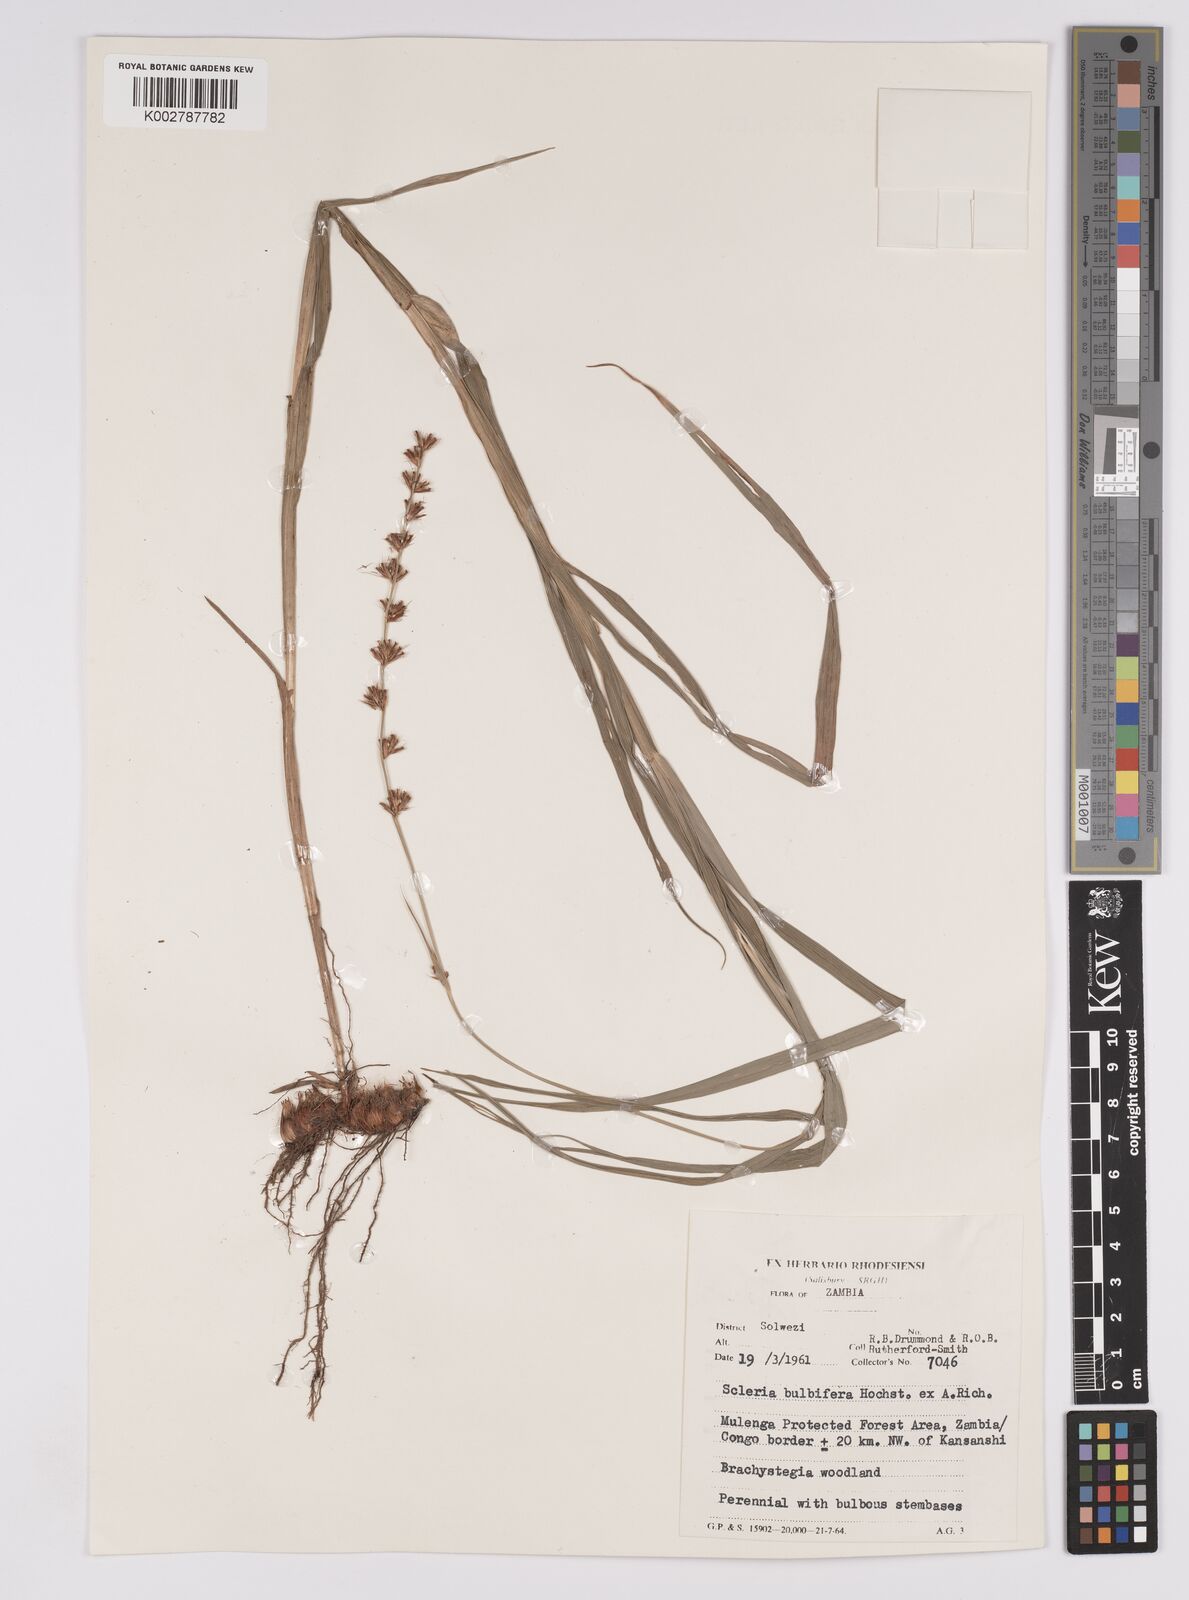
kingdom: Plantae
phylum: Tracheophyta
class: Liliopsida
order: Poales
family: Cyperaceae
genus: Scleria
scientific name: Scleria bulbifera
